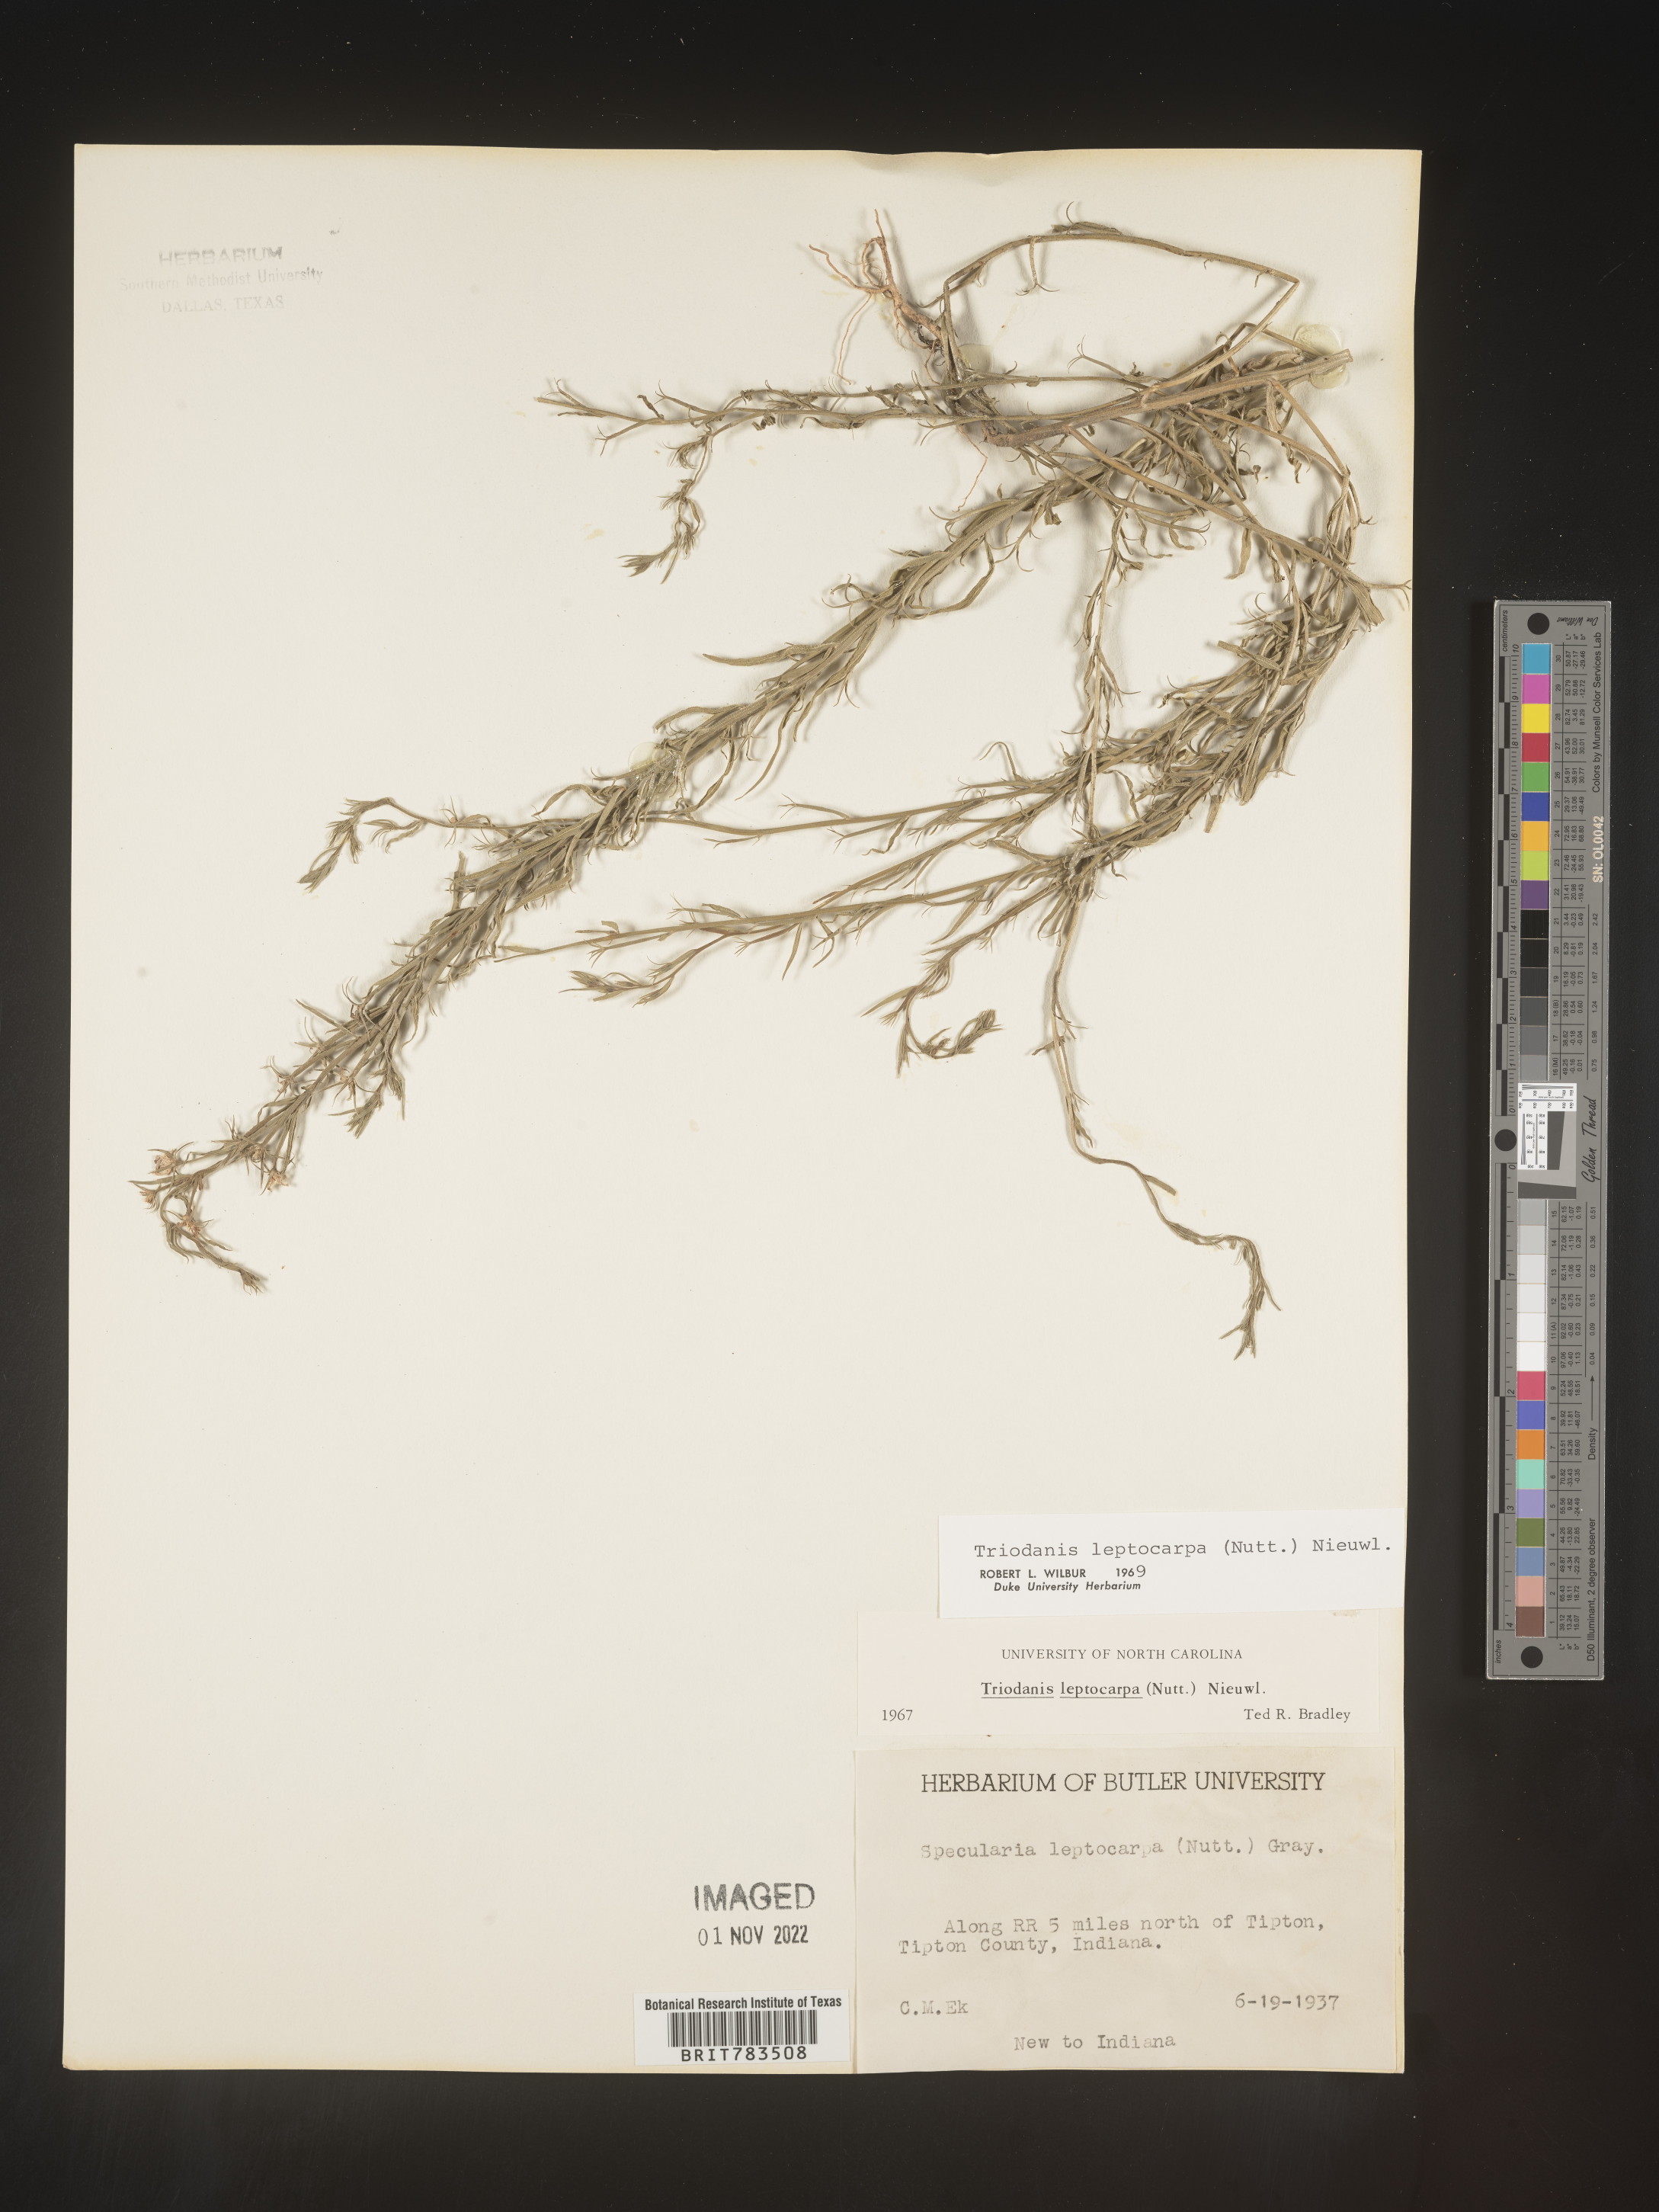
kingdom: Plantae
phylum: Tracheophyta
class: Magnoliopsida
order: Asterales
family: Campanulaceae
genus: Triodanis
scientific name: Triodanis leptocarpa
